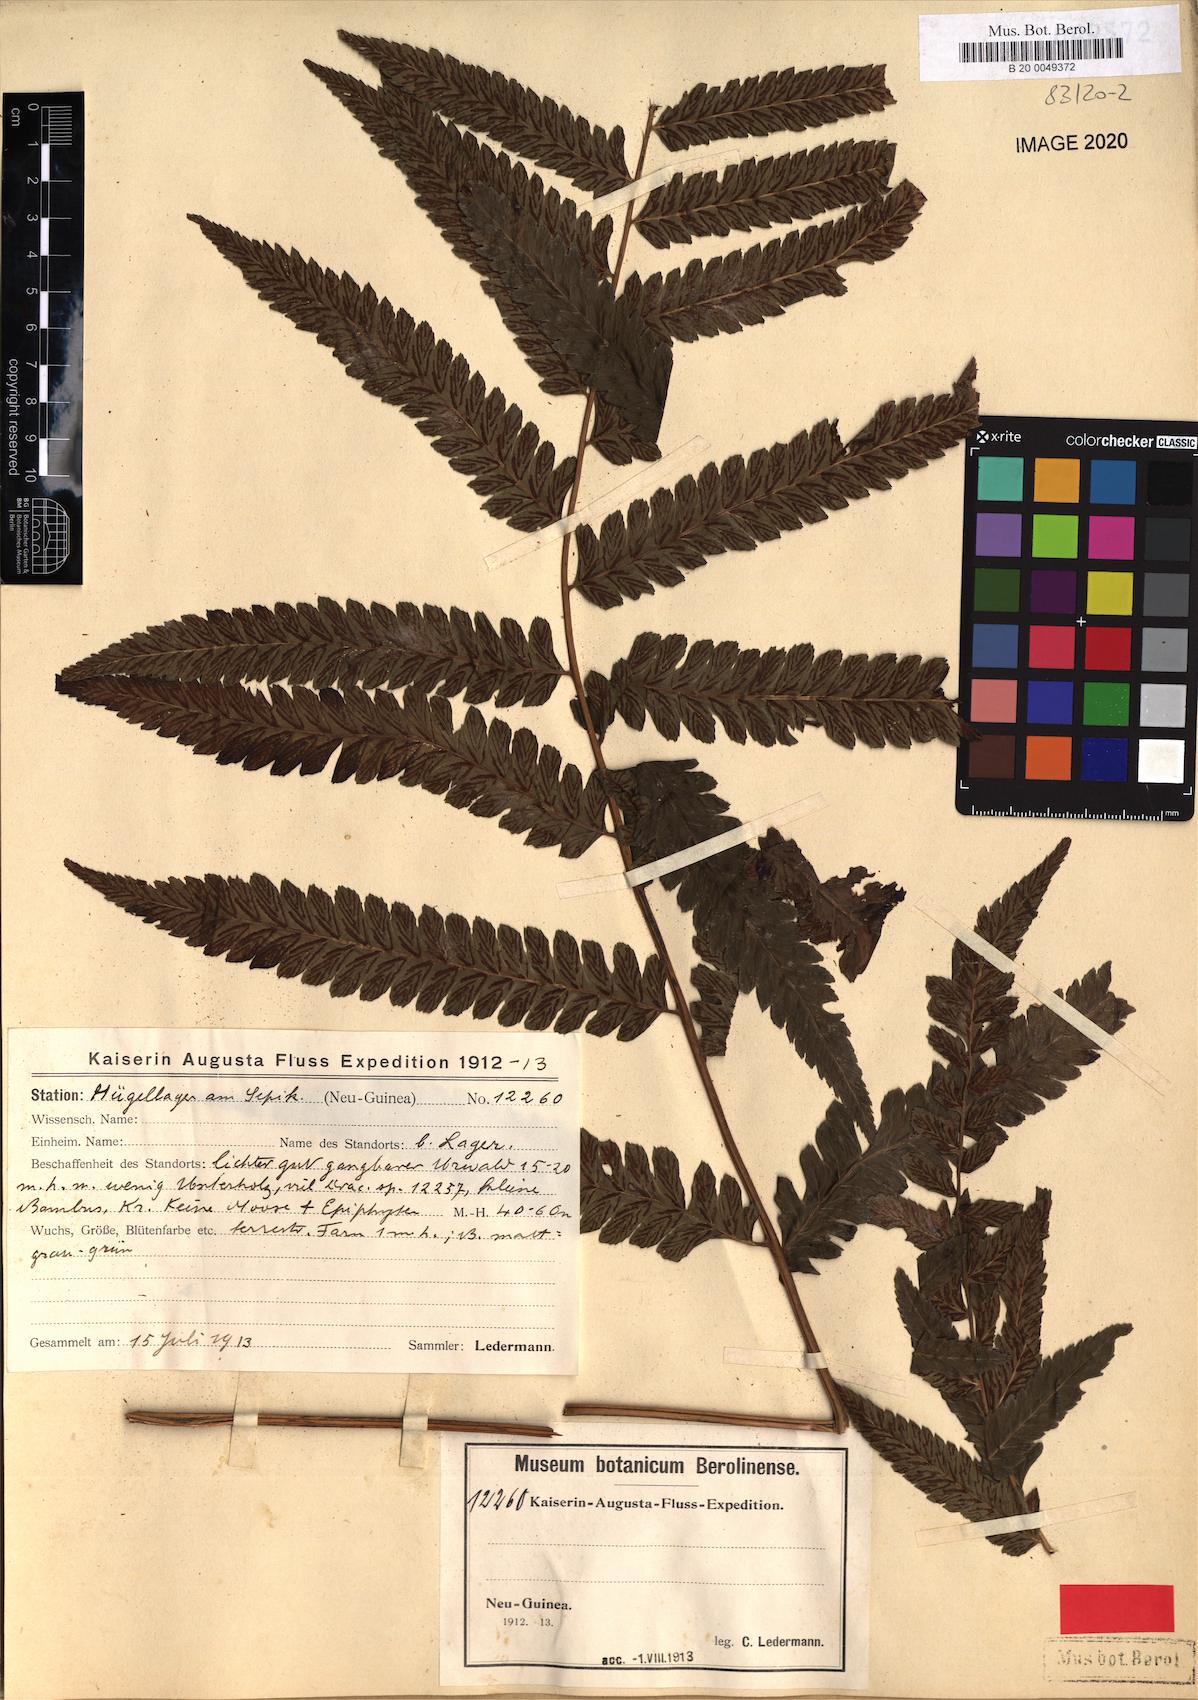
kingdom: Plantae
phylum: Tracheophyta
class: Polypodiopsida
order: Polypodiales
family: Athyriaceae
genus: Diplazium
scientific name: Diplazium pseudoshepherdioides
